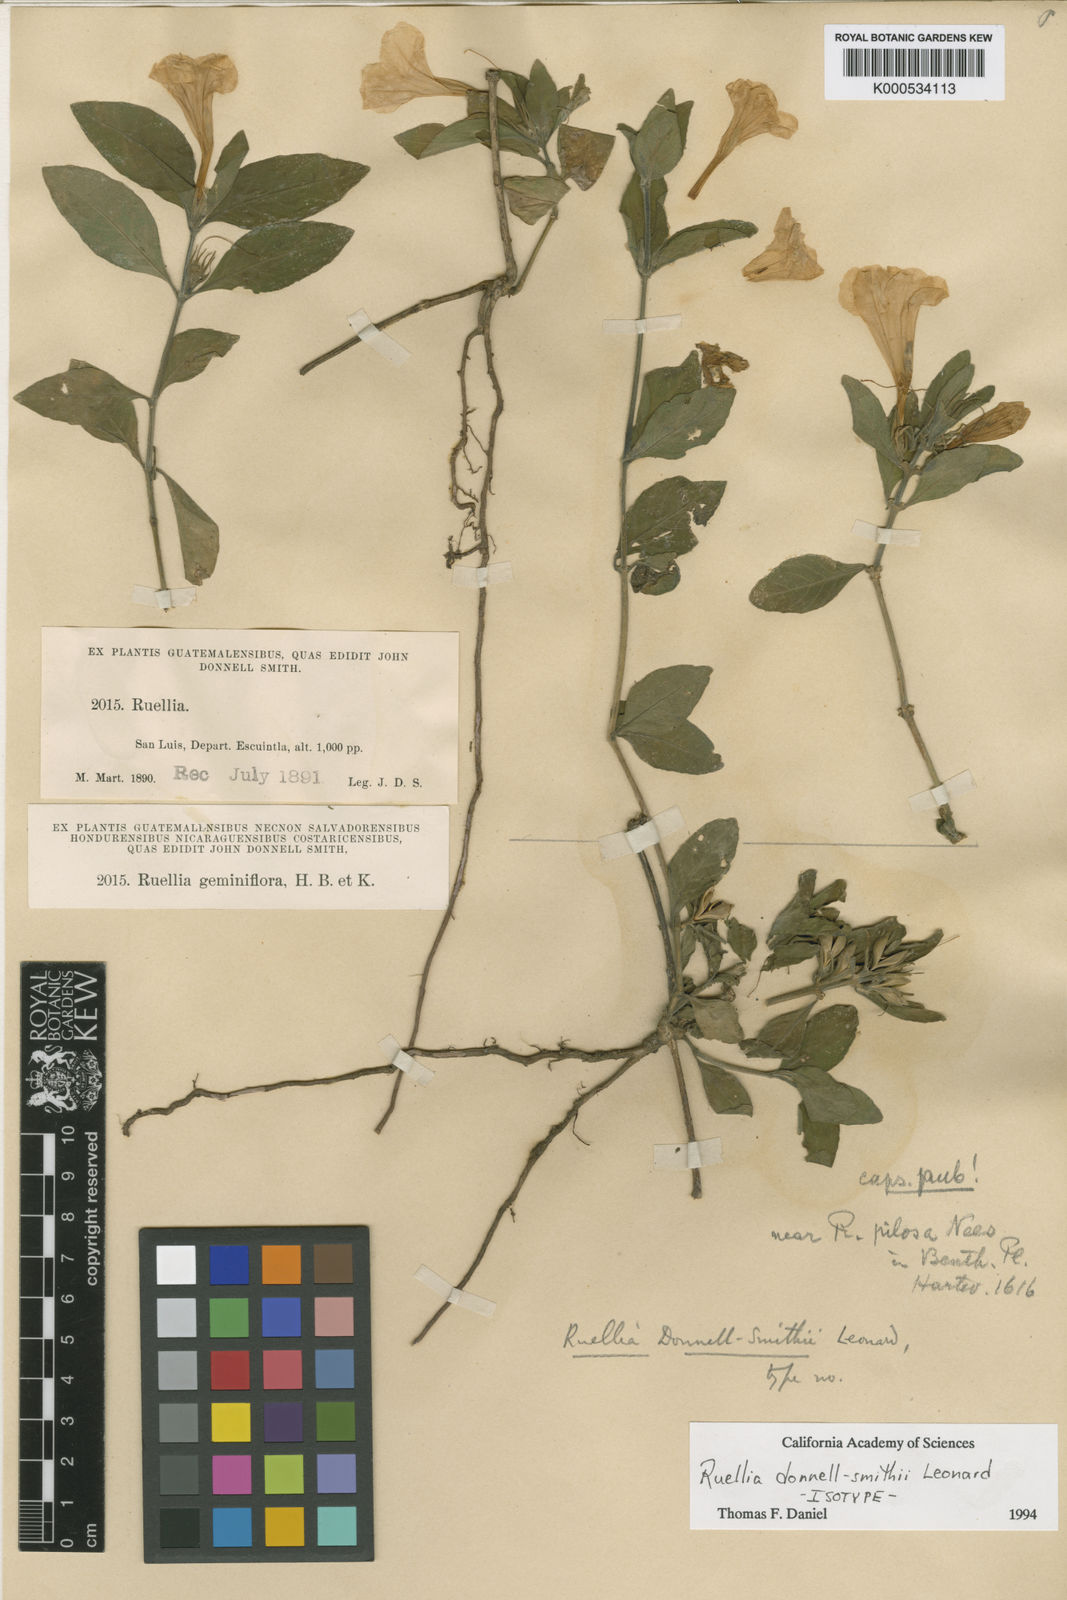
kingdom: Plantae
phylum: Tracheophyta
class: Magnoliopsida
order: Lamiales
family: Acanthaceae
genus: Ruellia
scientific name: Ruellia donnell-smithii
